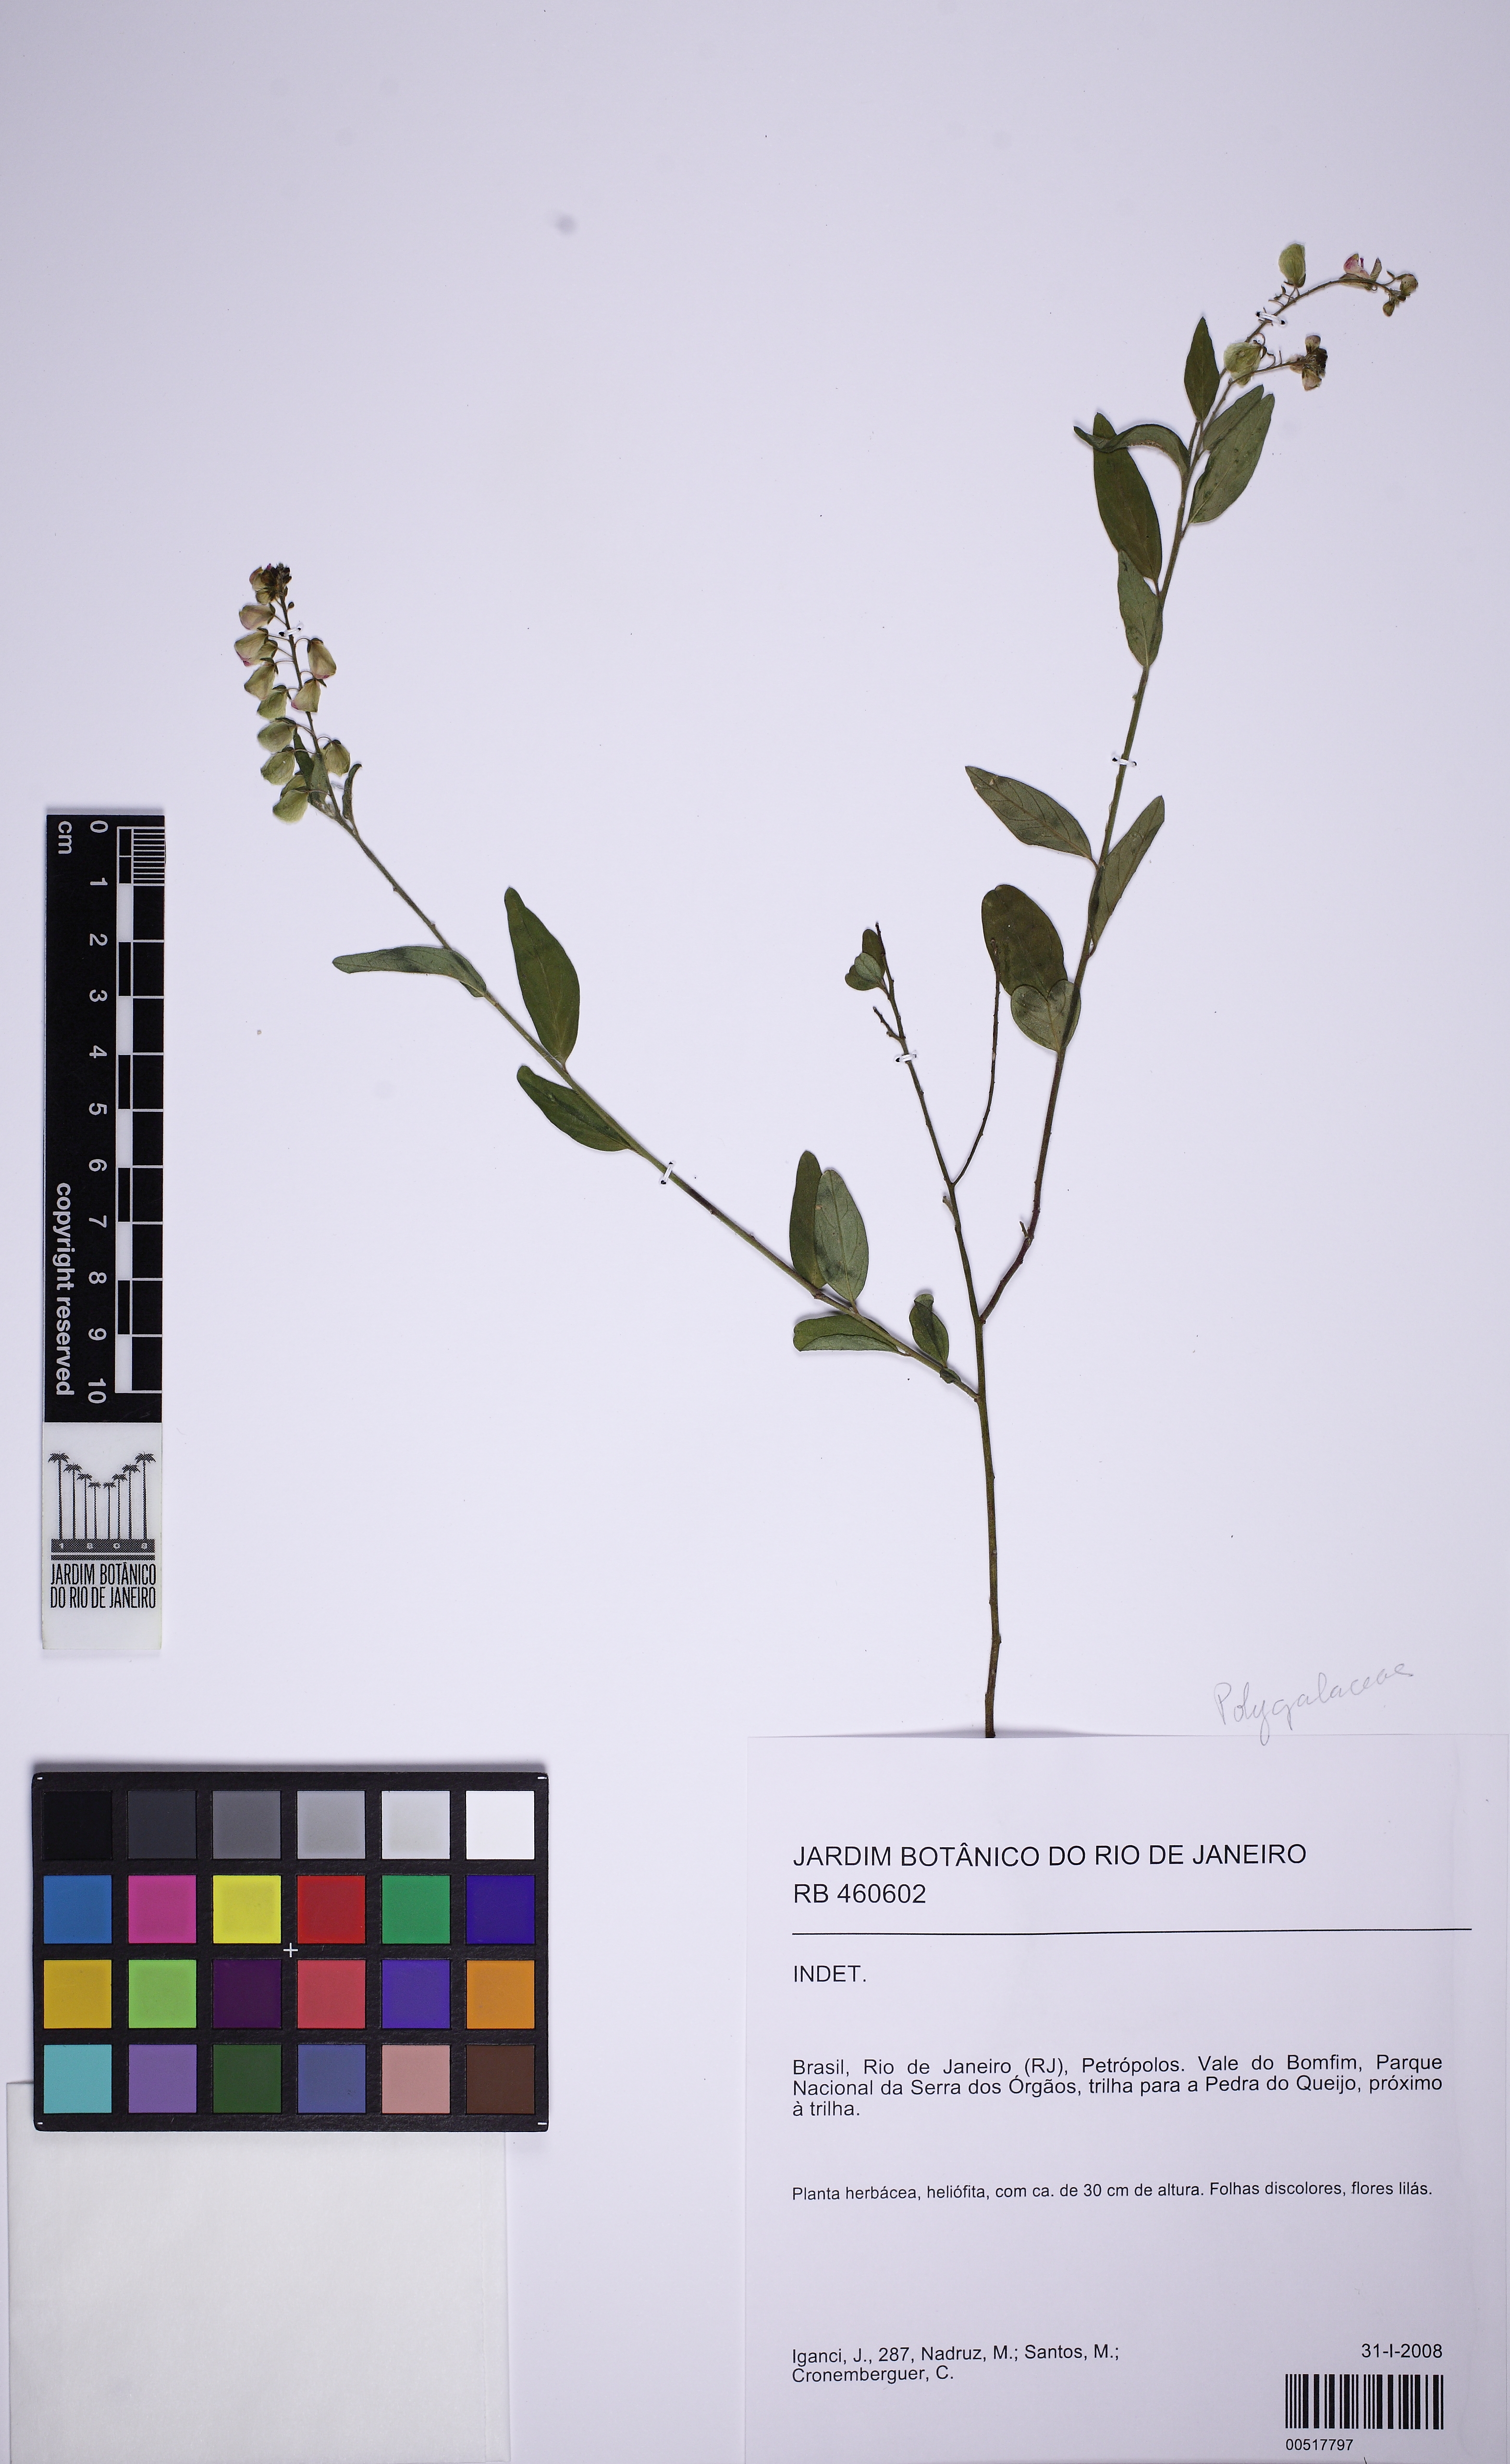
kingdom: Plantae
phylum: Tracheophyta
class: Magnoliopsida
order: Fabales
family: Polygalaceae
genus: Asemeia
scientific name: Asemeia
